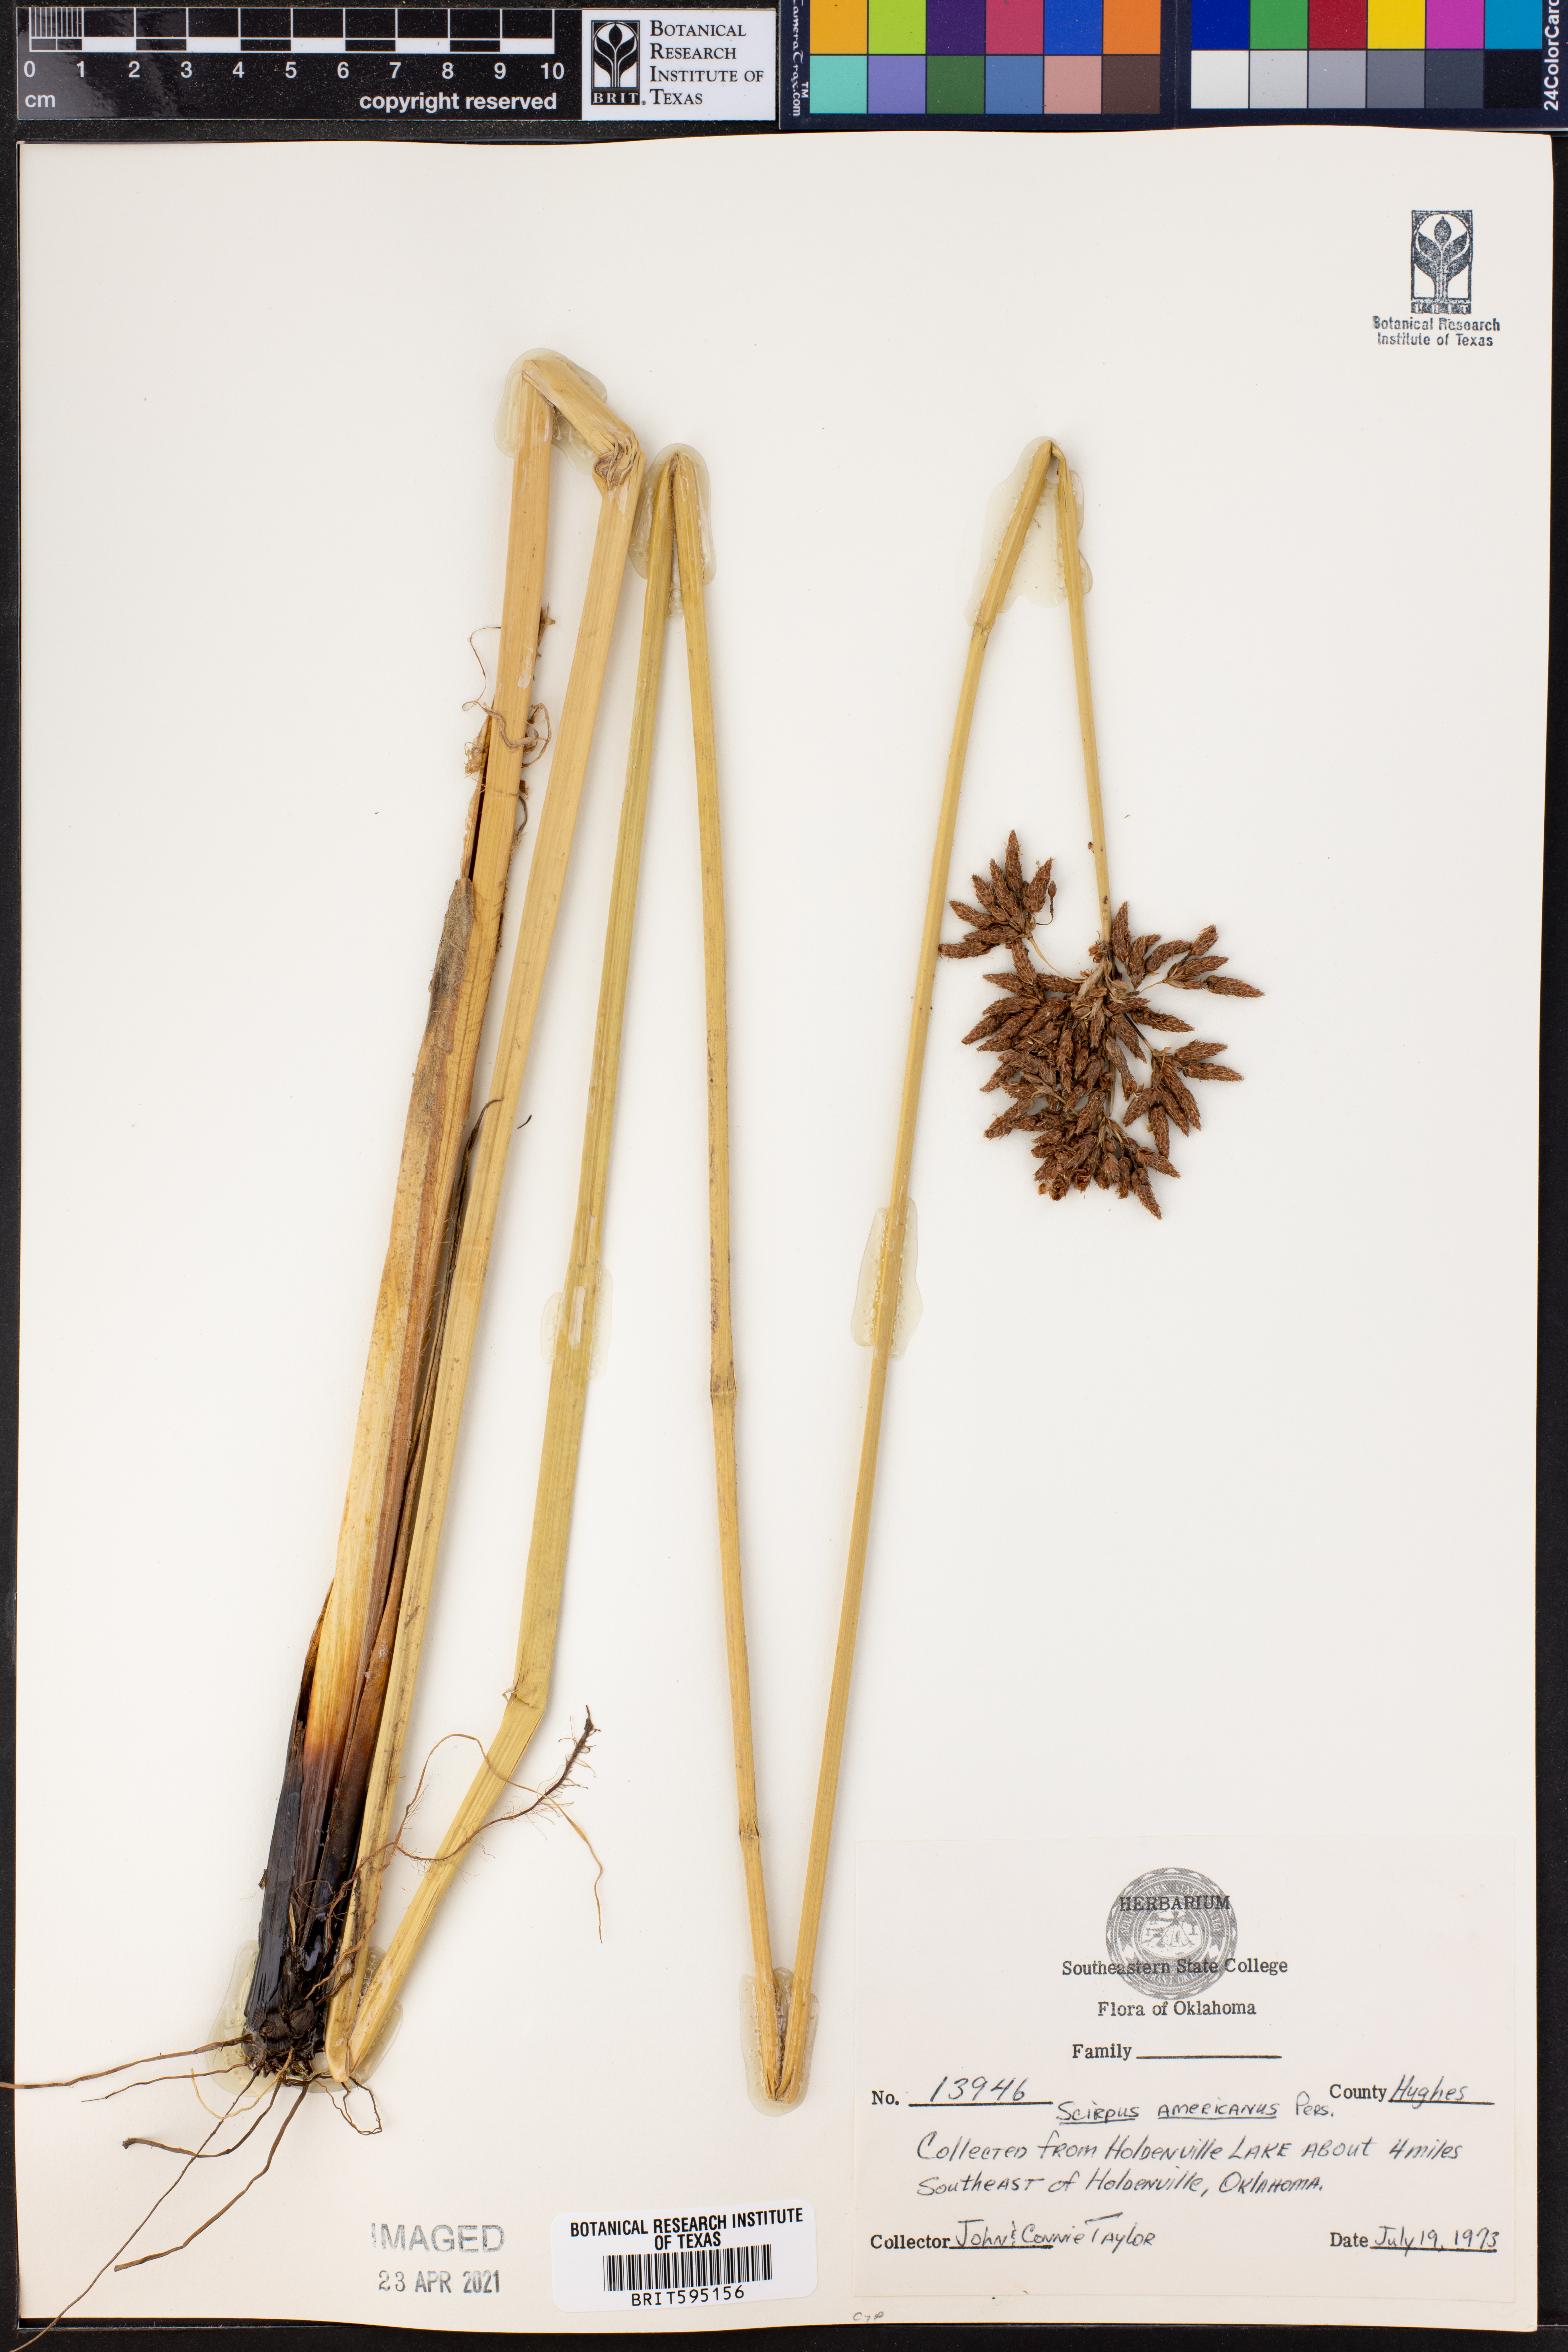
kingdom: Plantae
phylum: Tracheophyta
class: Liliopsida
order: Poales
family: Cyperaceae
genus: Schoenoplectus
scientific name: Schoenoplectus americanus
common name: American three-square bulrush
